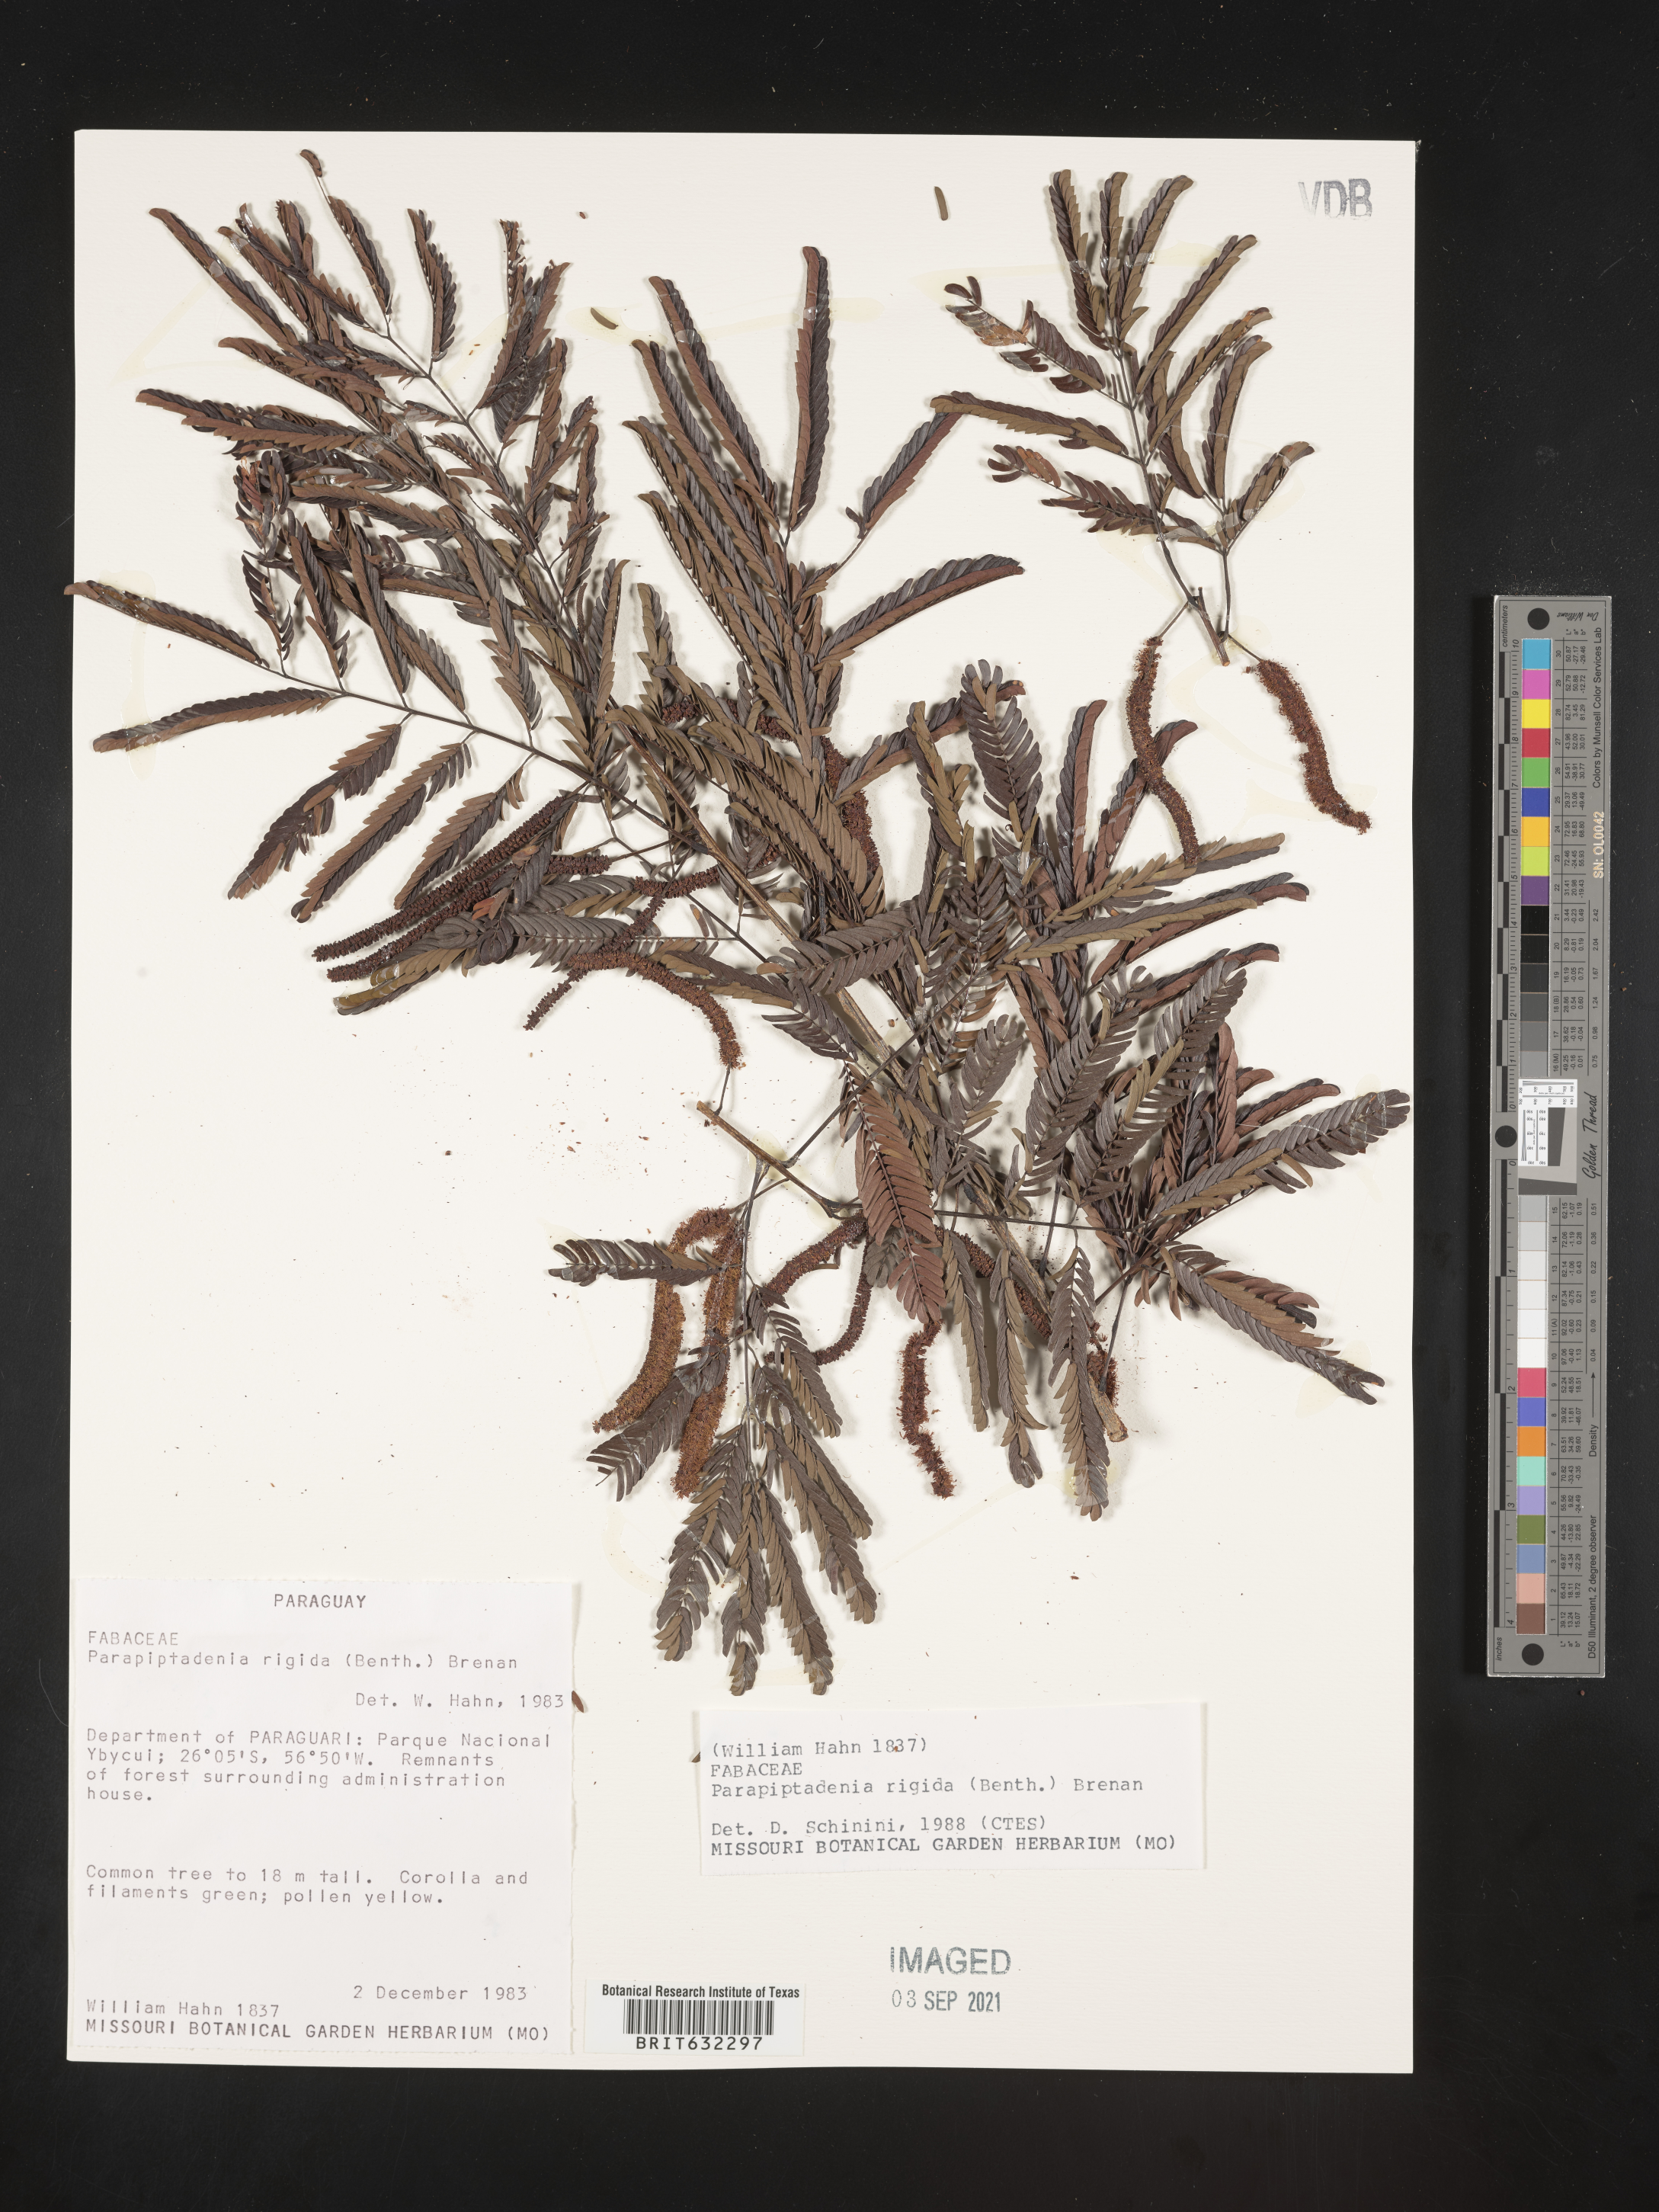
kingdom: Plantae
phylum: Tracheophyta
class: Magnoliopsida
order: Fabales
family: Fabaceae
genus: Parapiptadenia
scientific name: Parapiptadenia
